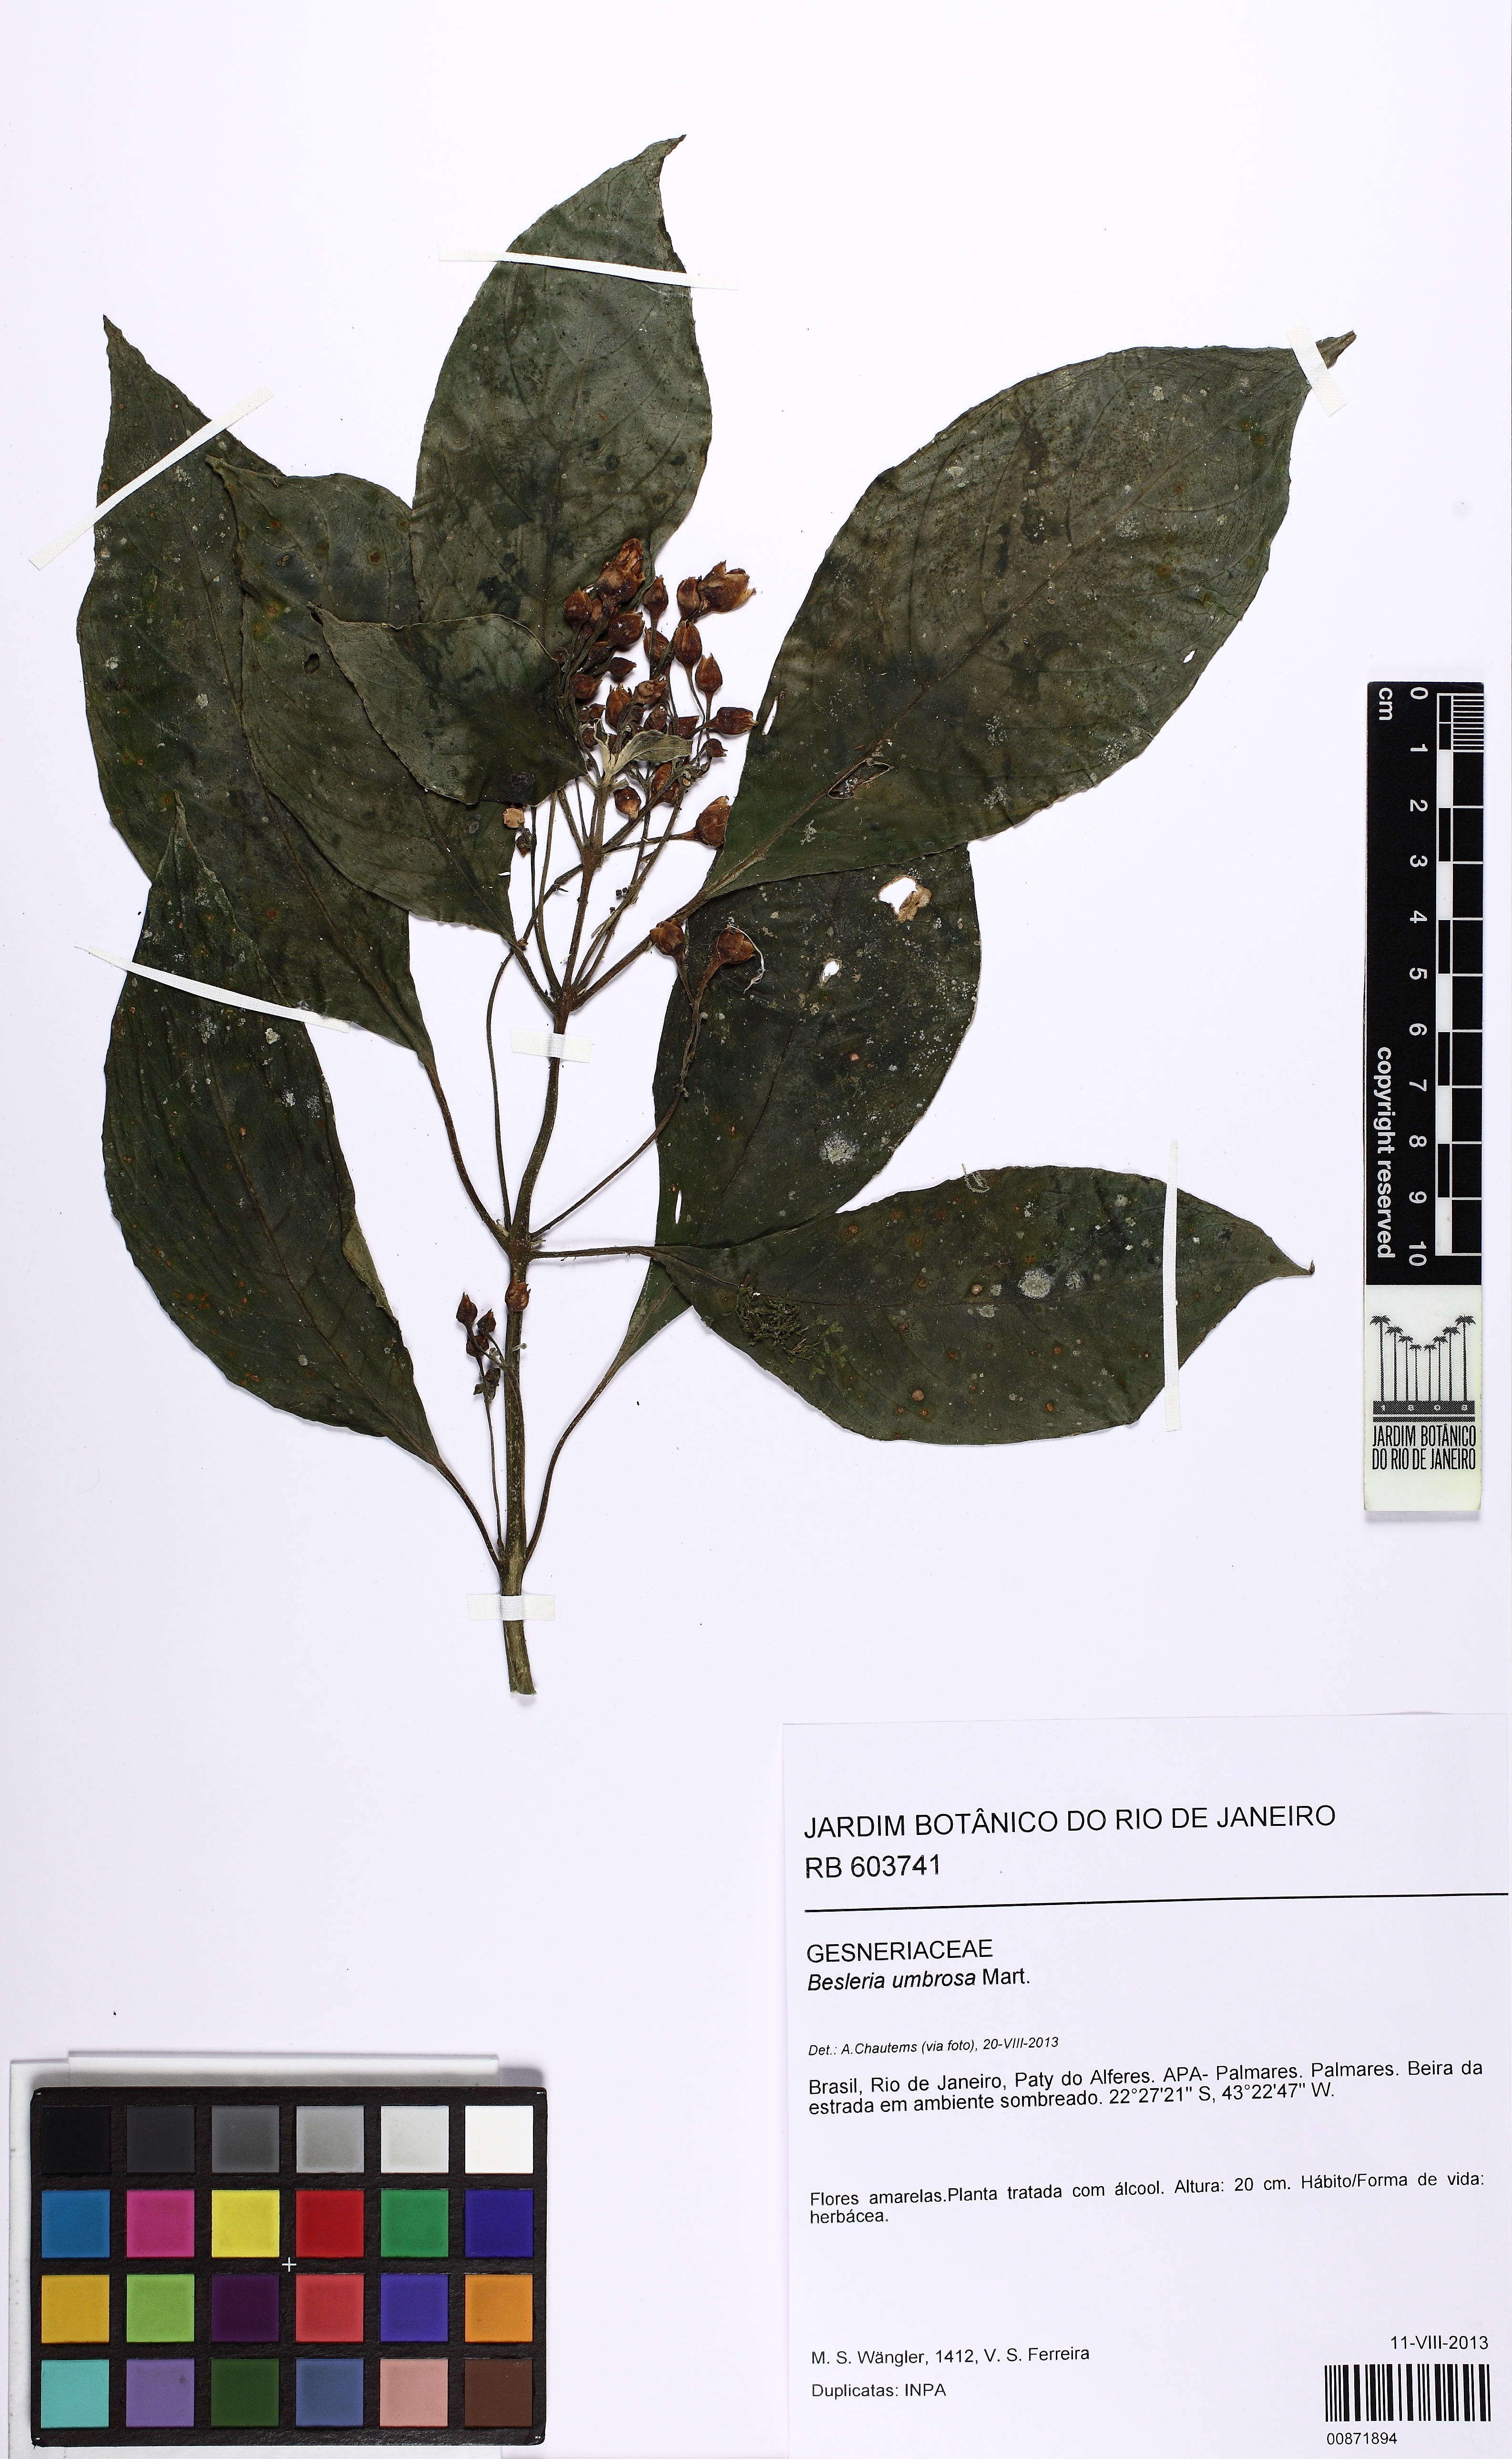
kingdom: Plantae
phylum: Tracheophyta
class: Magnoliopsida
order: Lamiales
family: Gesneriaceae
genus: Besleria
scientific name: Besleria umbrosa
